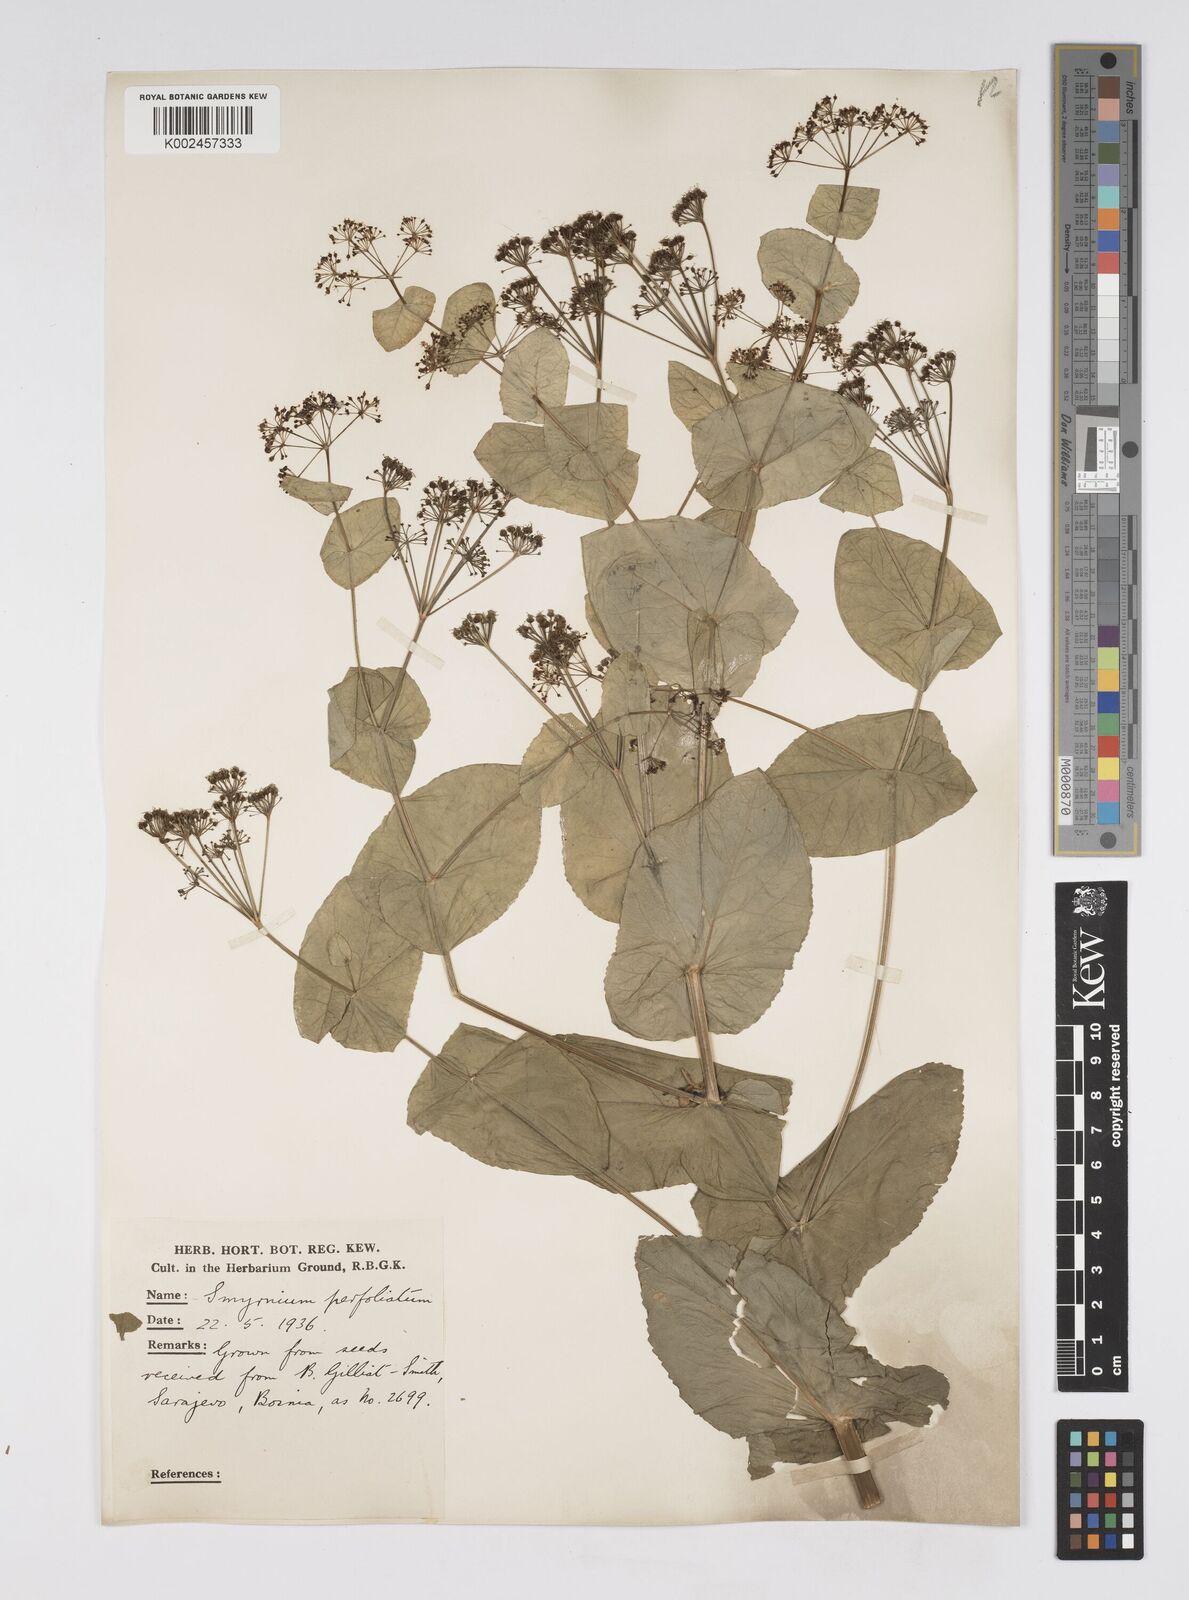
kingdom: Plantae
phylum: Tracheophyta
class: Magnoliopsida
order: Apiales
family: Apiaceae
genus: Smyrnium
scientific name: Smyrnium perfoliatum
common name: Perfoliate alexanders
